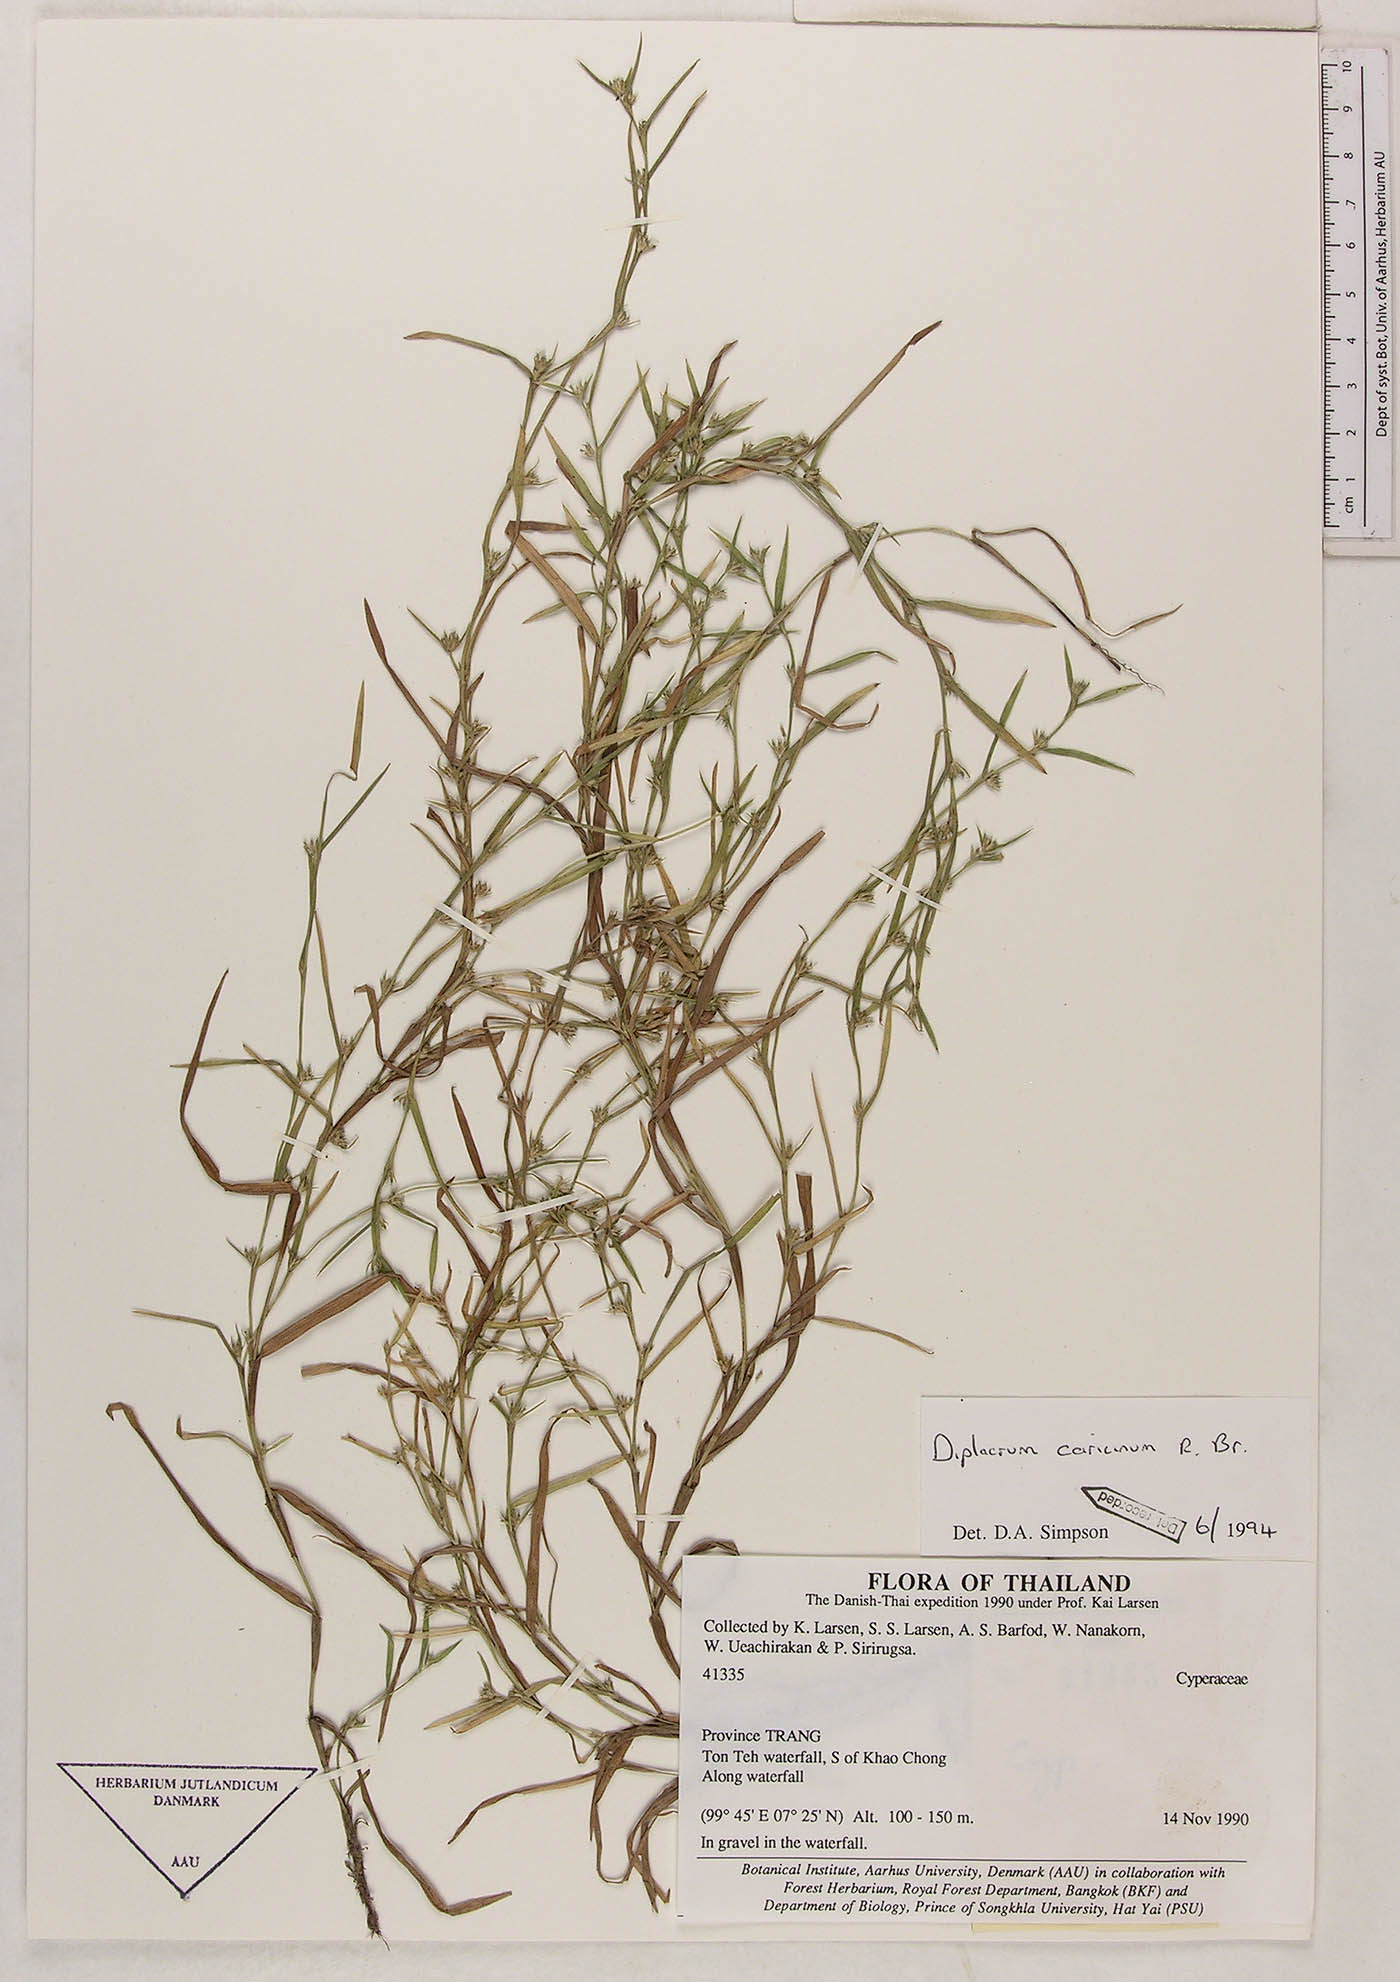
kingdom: Plantae
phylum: Tracheophyta
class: Liliopsida
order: Poales
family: Cyperaceae
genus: Diplacrum
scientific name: Diplacrum caricinum
